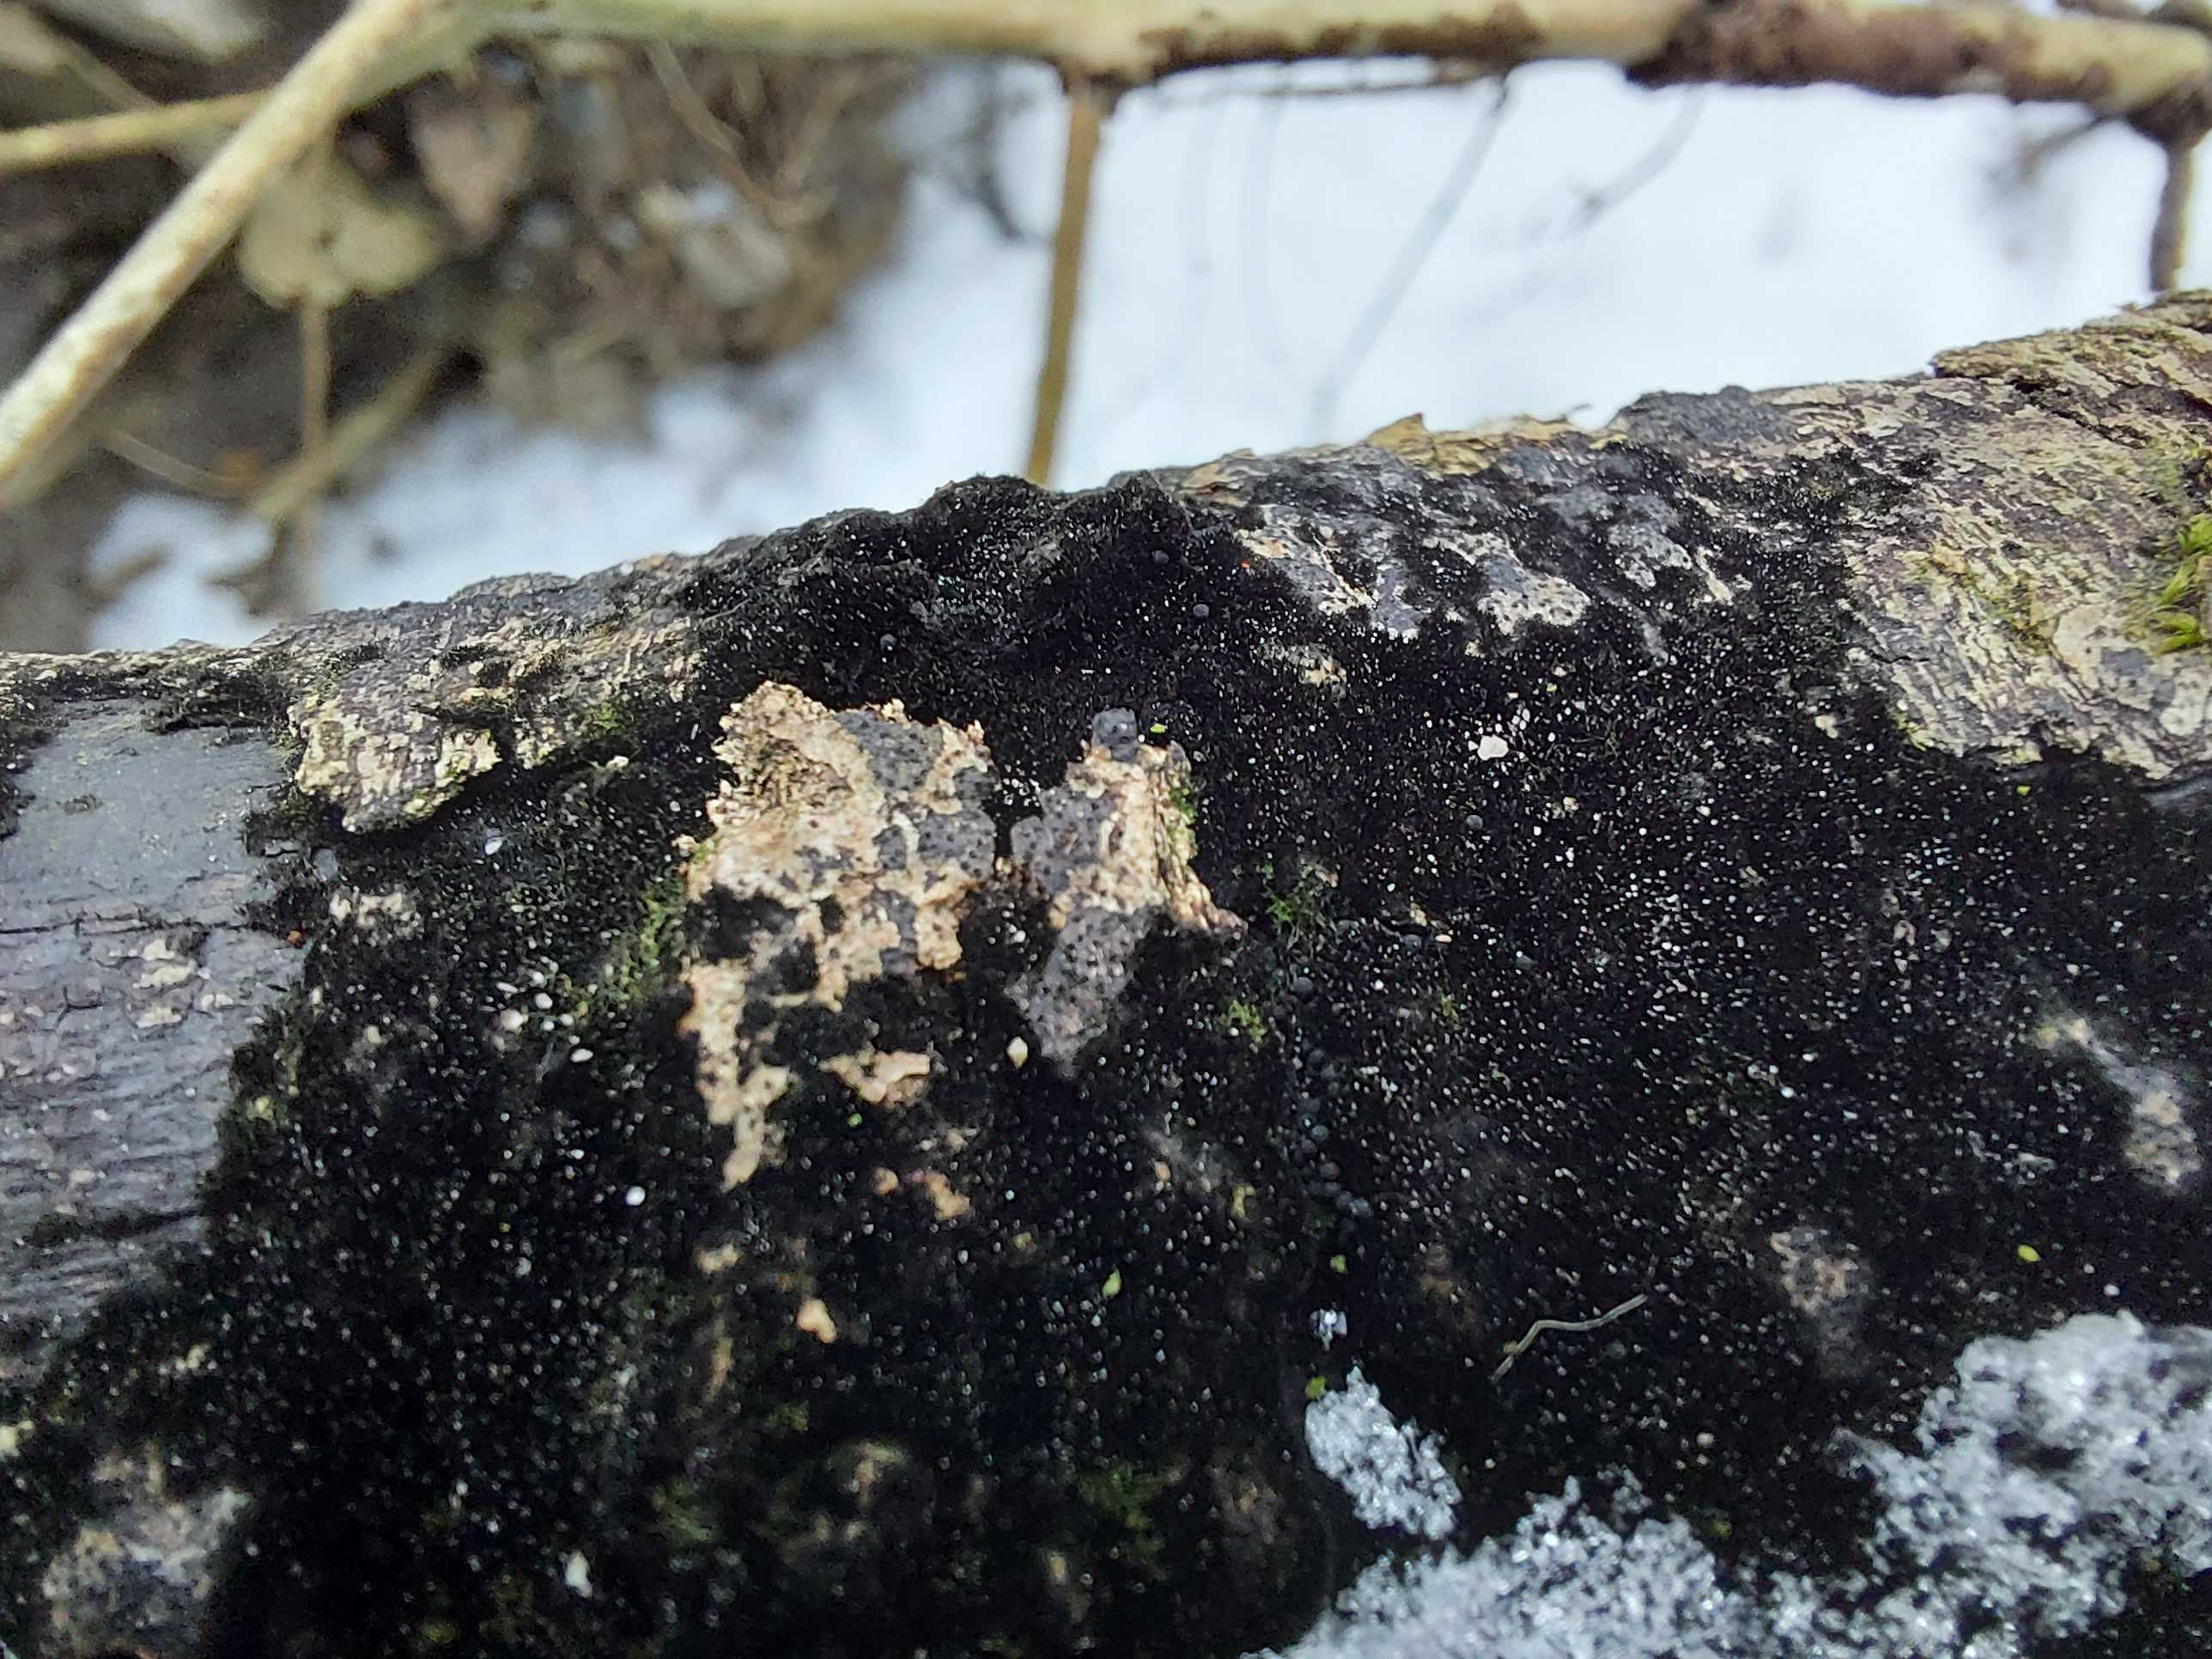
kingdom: Fungi
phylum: Ascomycota
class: Sordariomycetes
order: Coronophorales
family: Chaetosphaerellaceae
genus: Chaetosphaerella
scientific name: Chaetosphaerella phaeostroma
